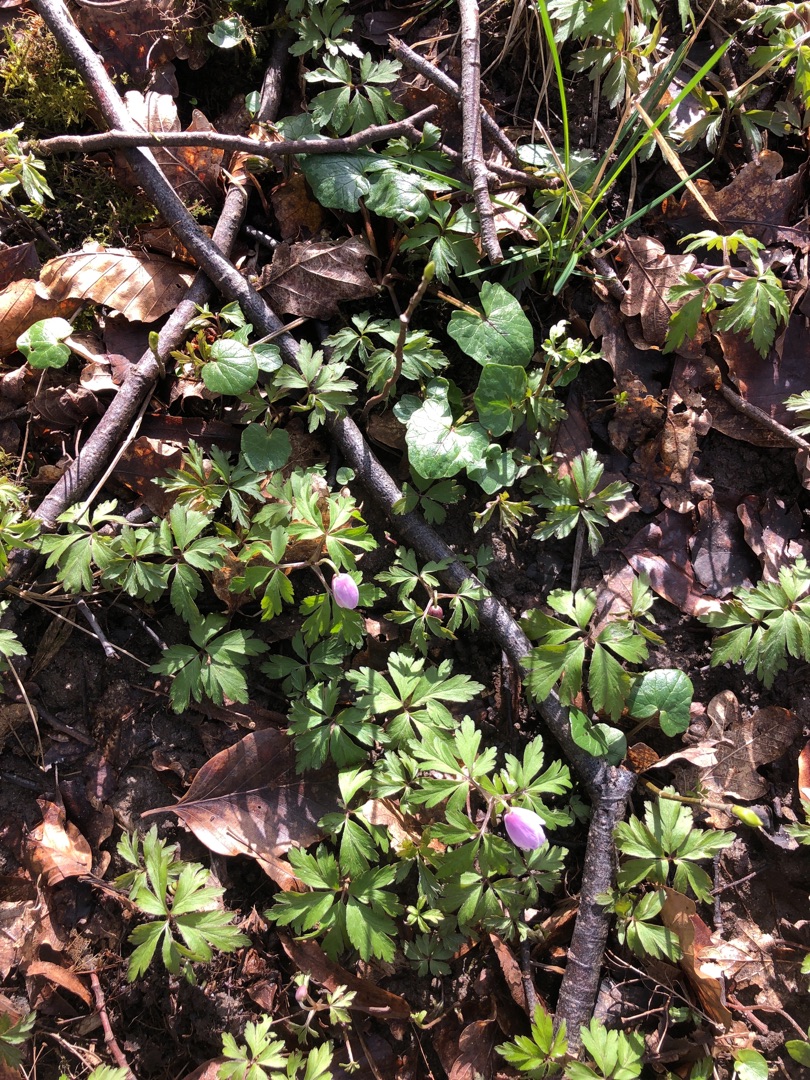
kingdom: Plantae
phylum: Tracheophyta
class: Magnoliopsida
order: Ranunculales
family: Ranunculaceae
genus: Anemone
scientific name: Anemone nemorosa
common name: Hvid anemone
